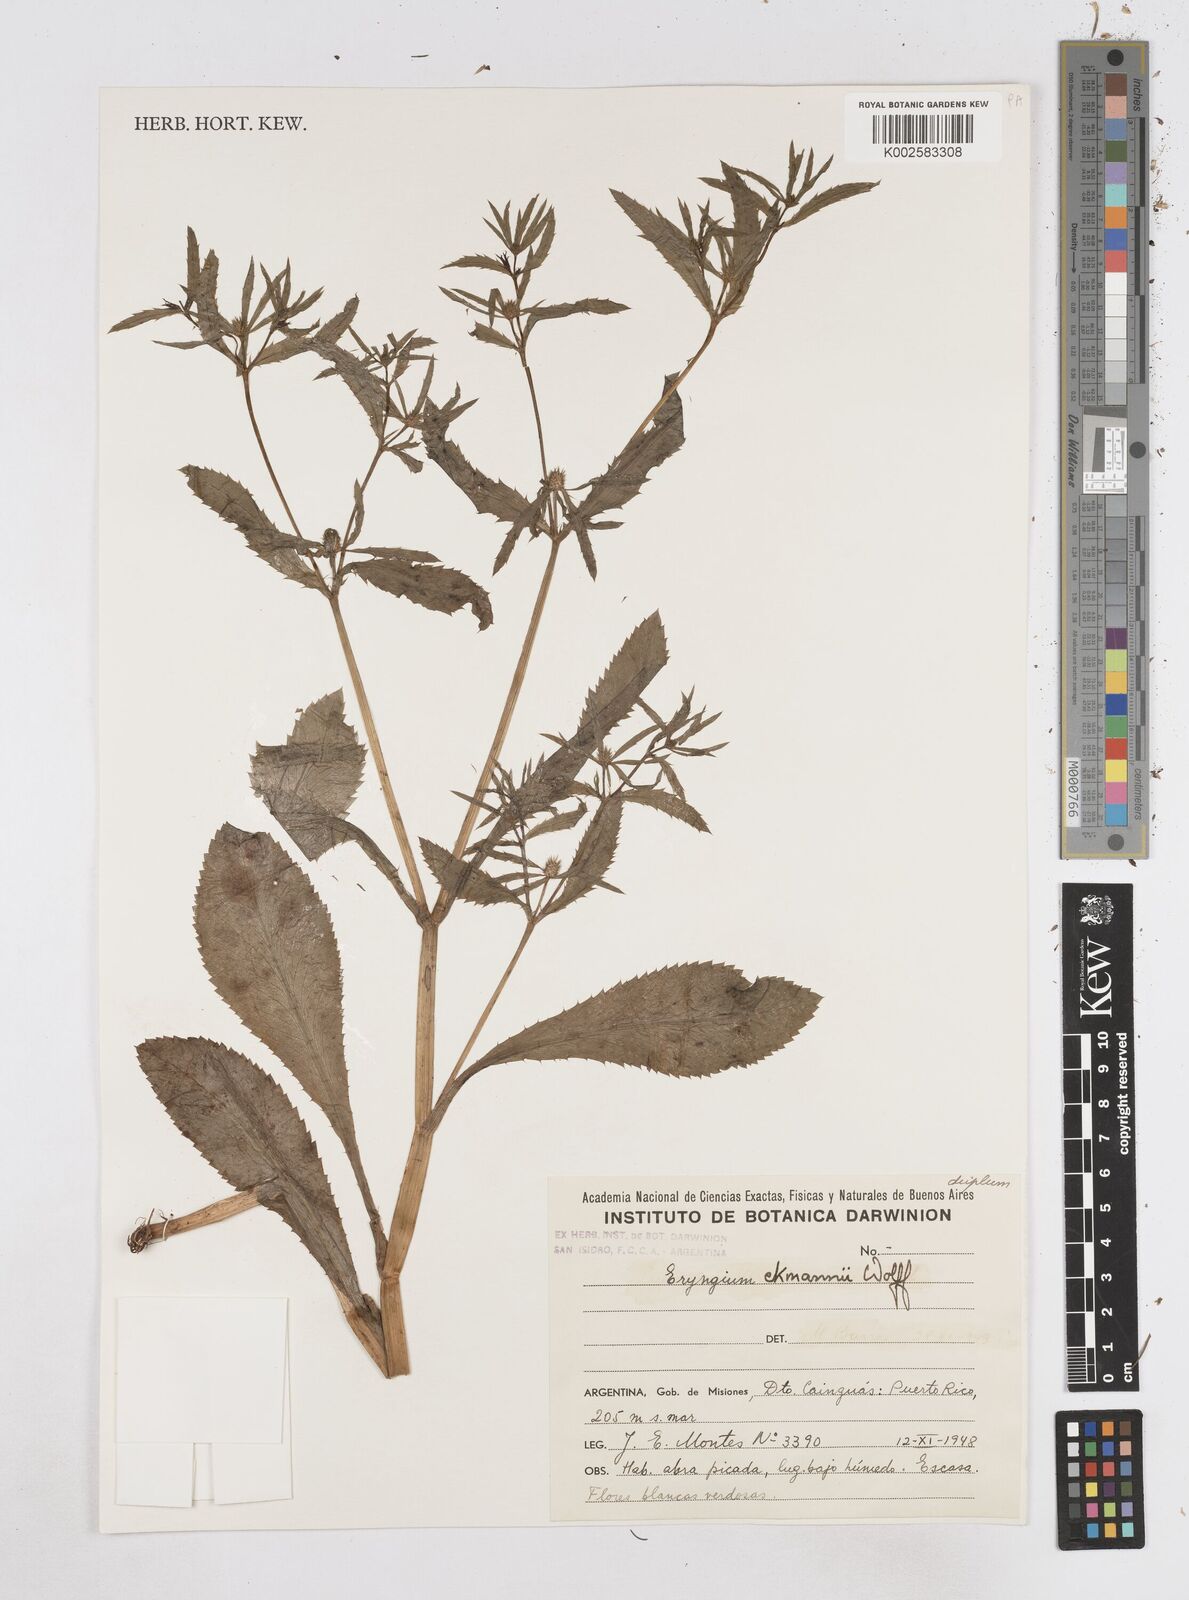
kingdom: Plantae
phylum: Tracheophyta
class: Magnoliopsida
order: Apiales
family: Apiaceae
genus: Eryngium
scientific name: Eryngium ekmanii
